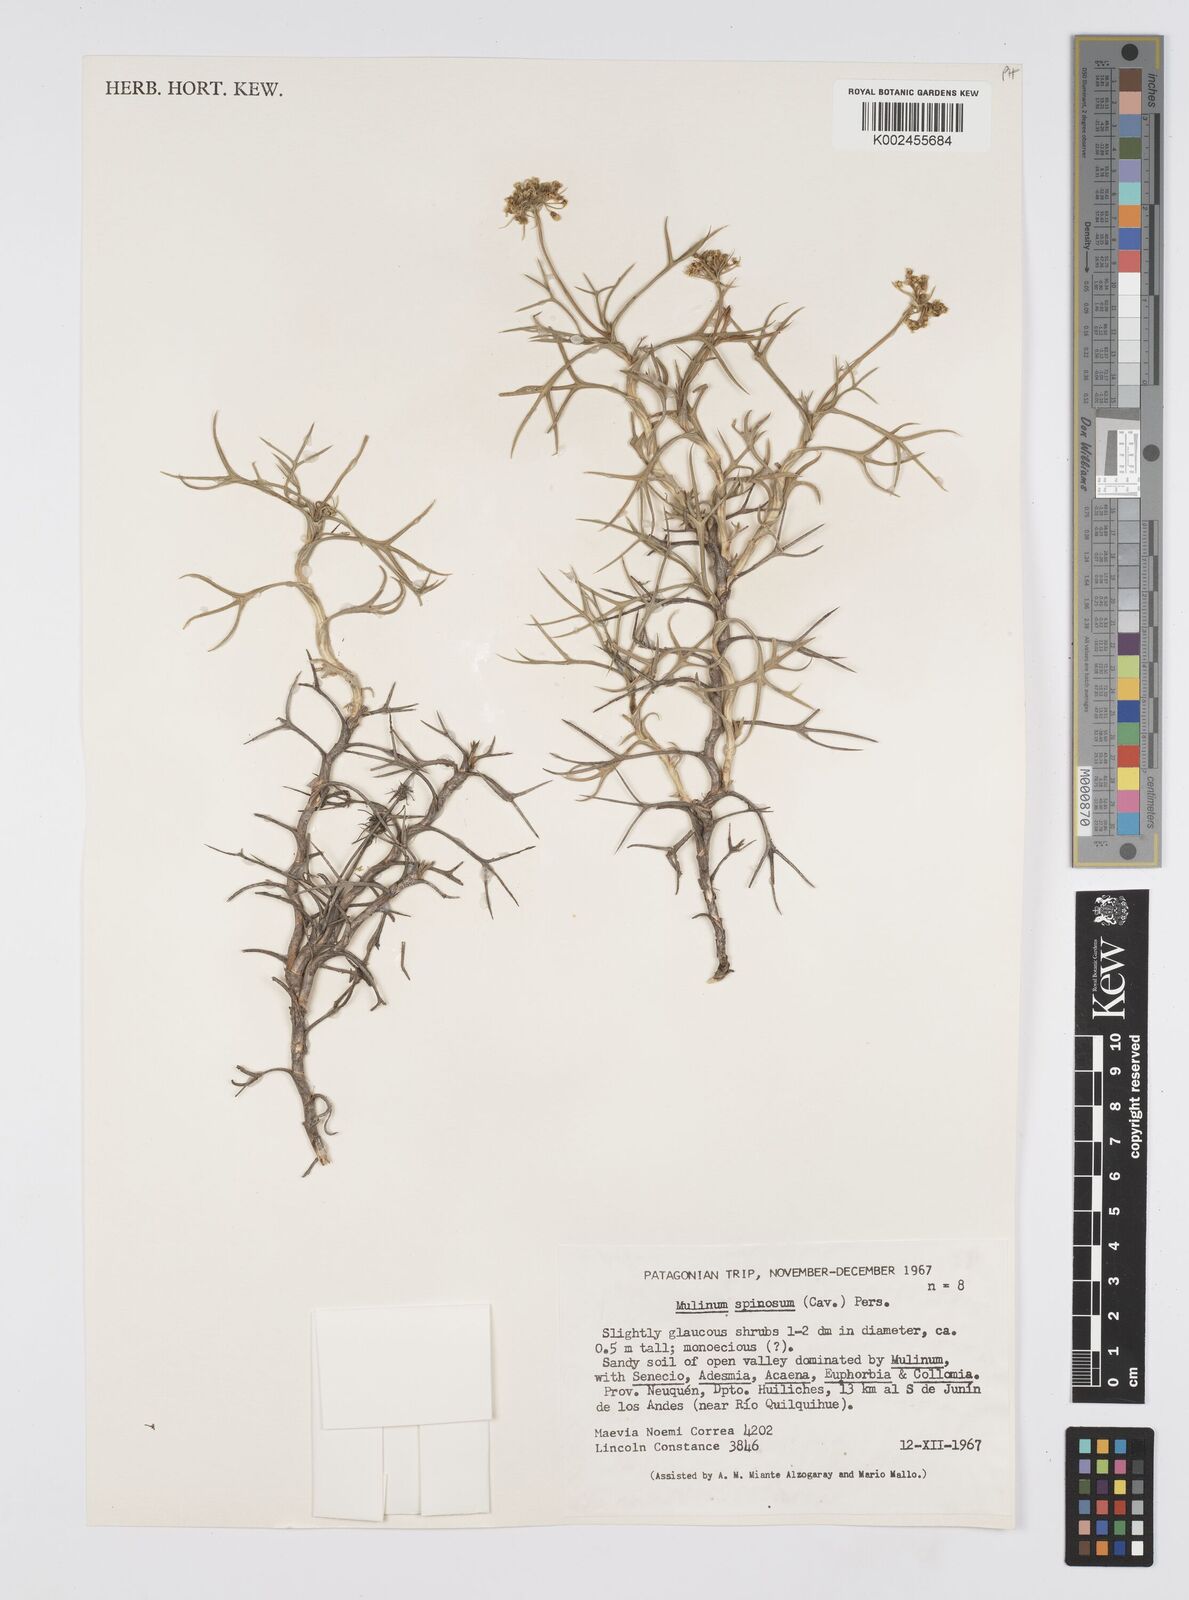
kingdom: Plantae
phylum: Tracheophyta
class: Magnoliopsida
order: Apiales
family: Apiaceae
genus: Azorella
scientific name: Azorella prolifera
